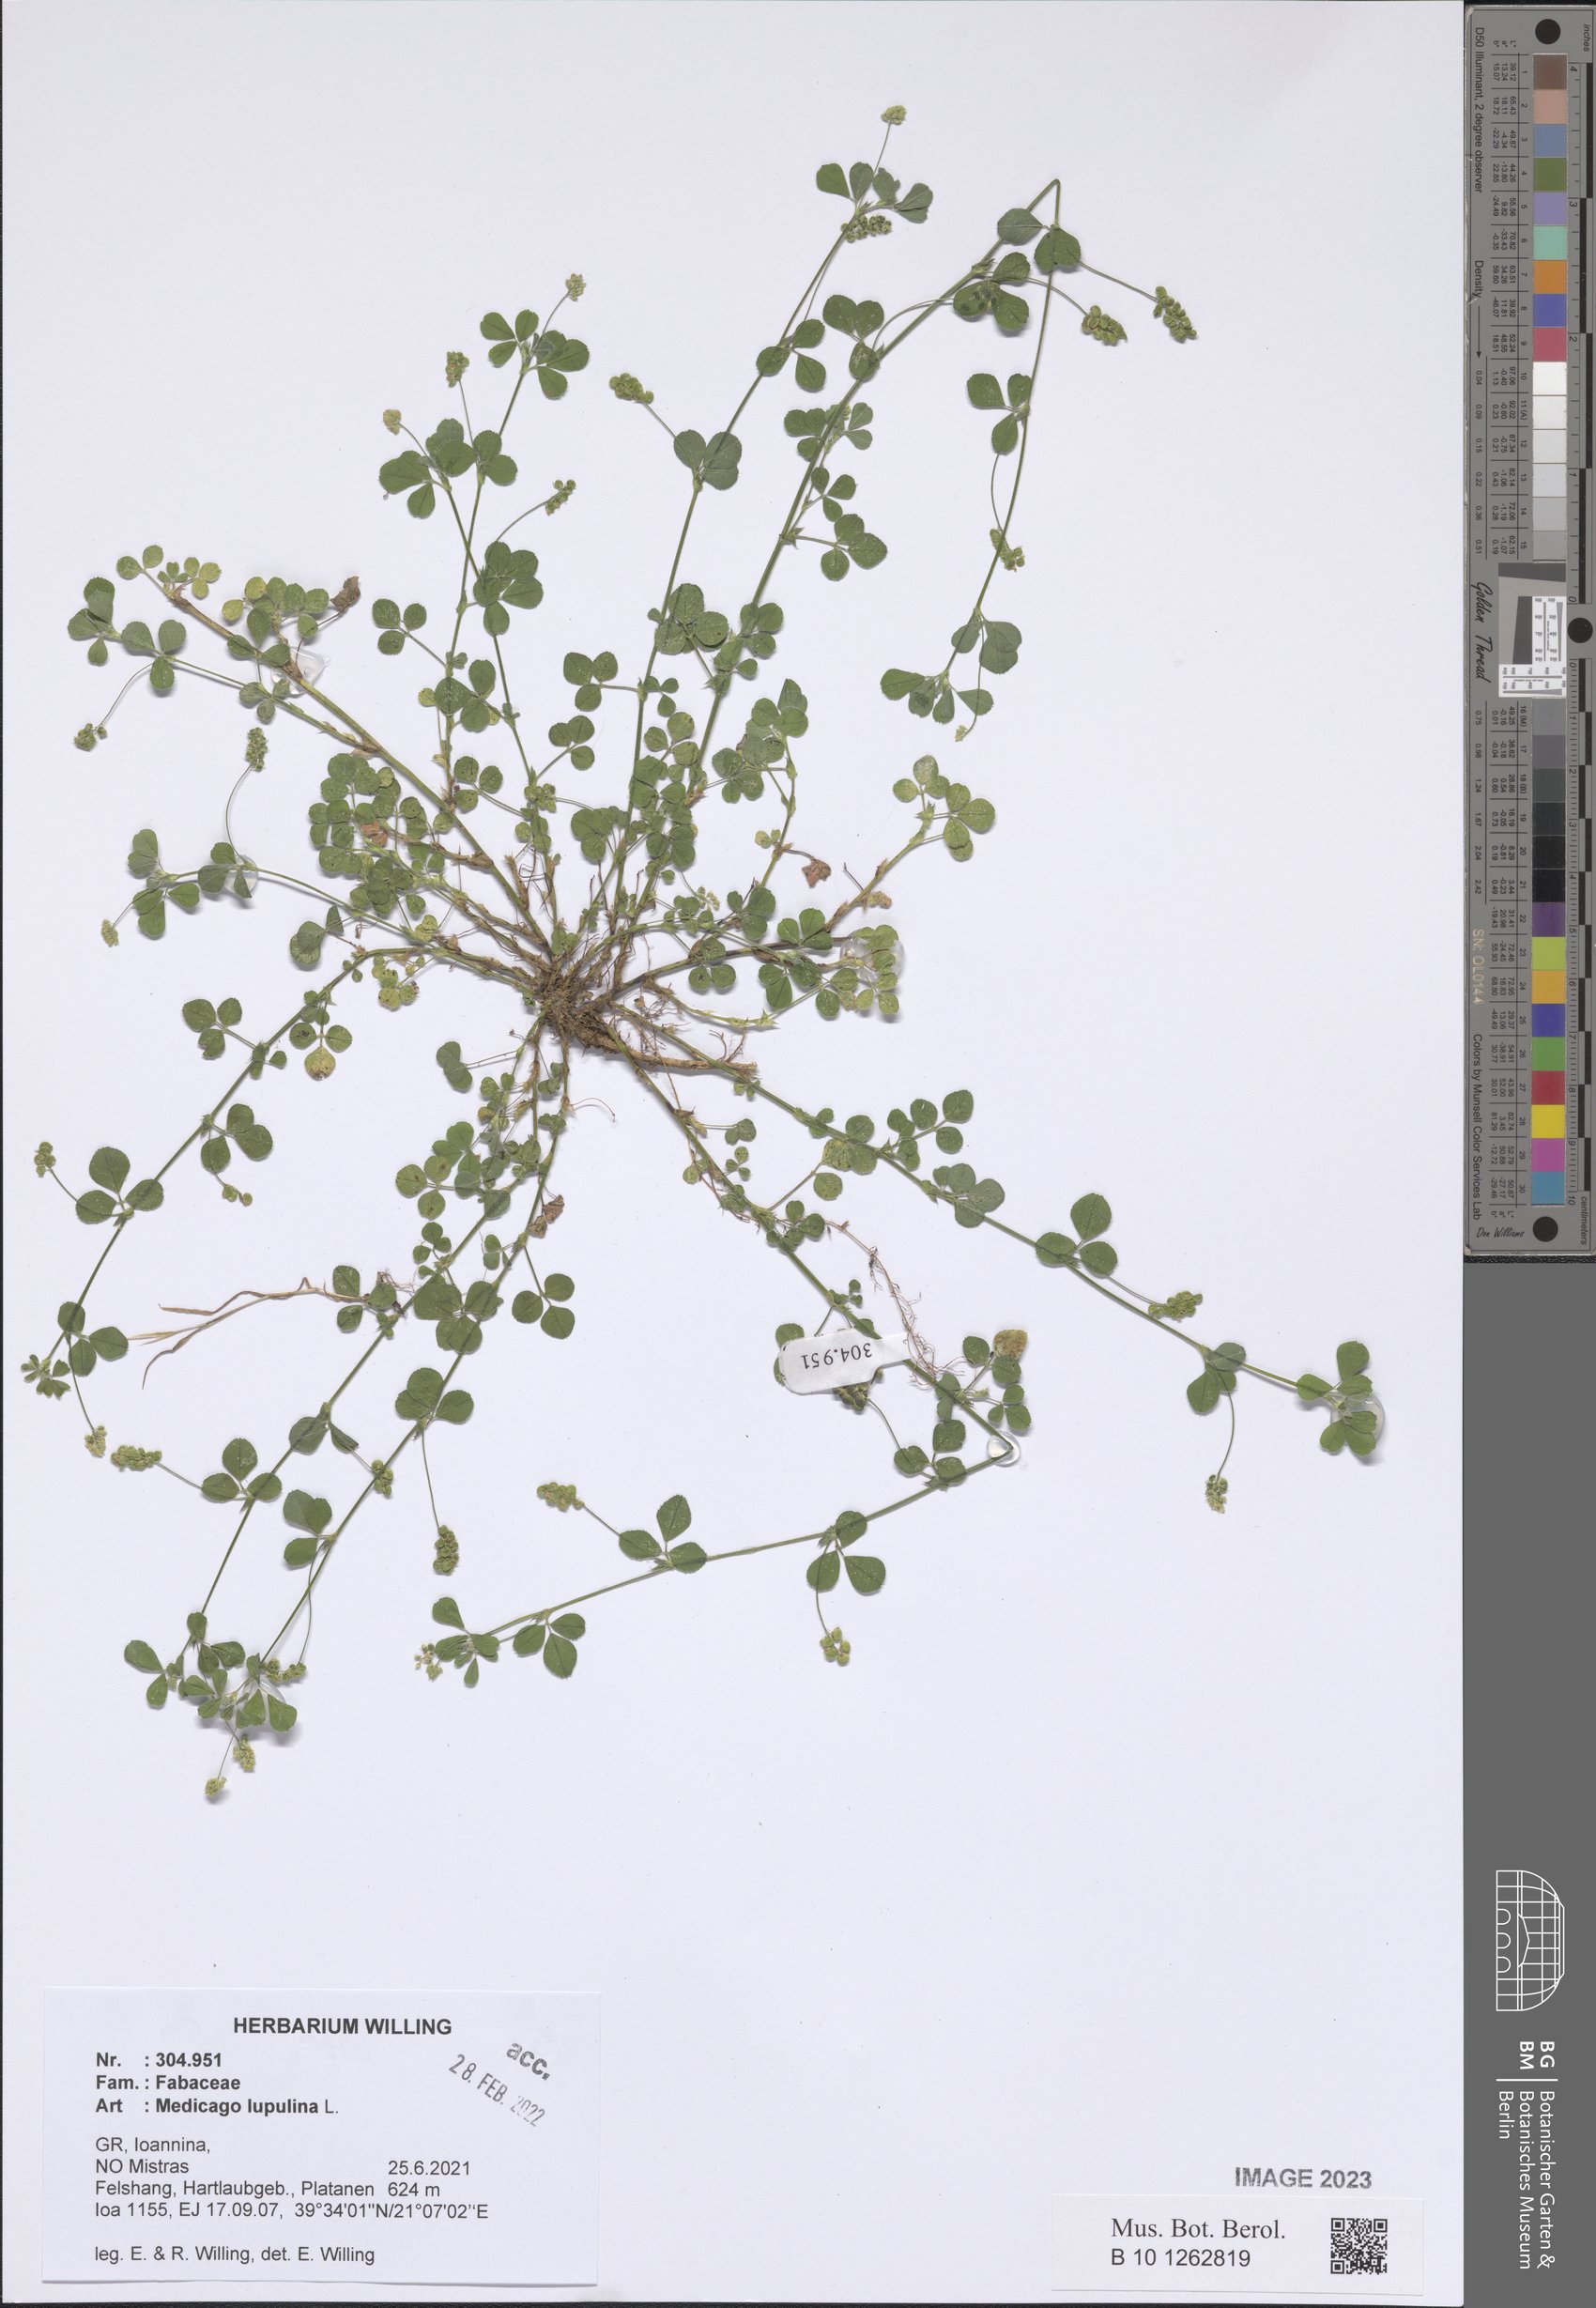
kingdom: Plantae
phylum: Tracheophyta
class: Magnoliopsida
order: Fabales
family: Fabaceae
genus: Medicago
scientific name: Medicago lupulina
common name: Black medick
